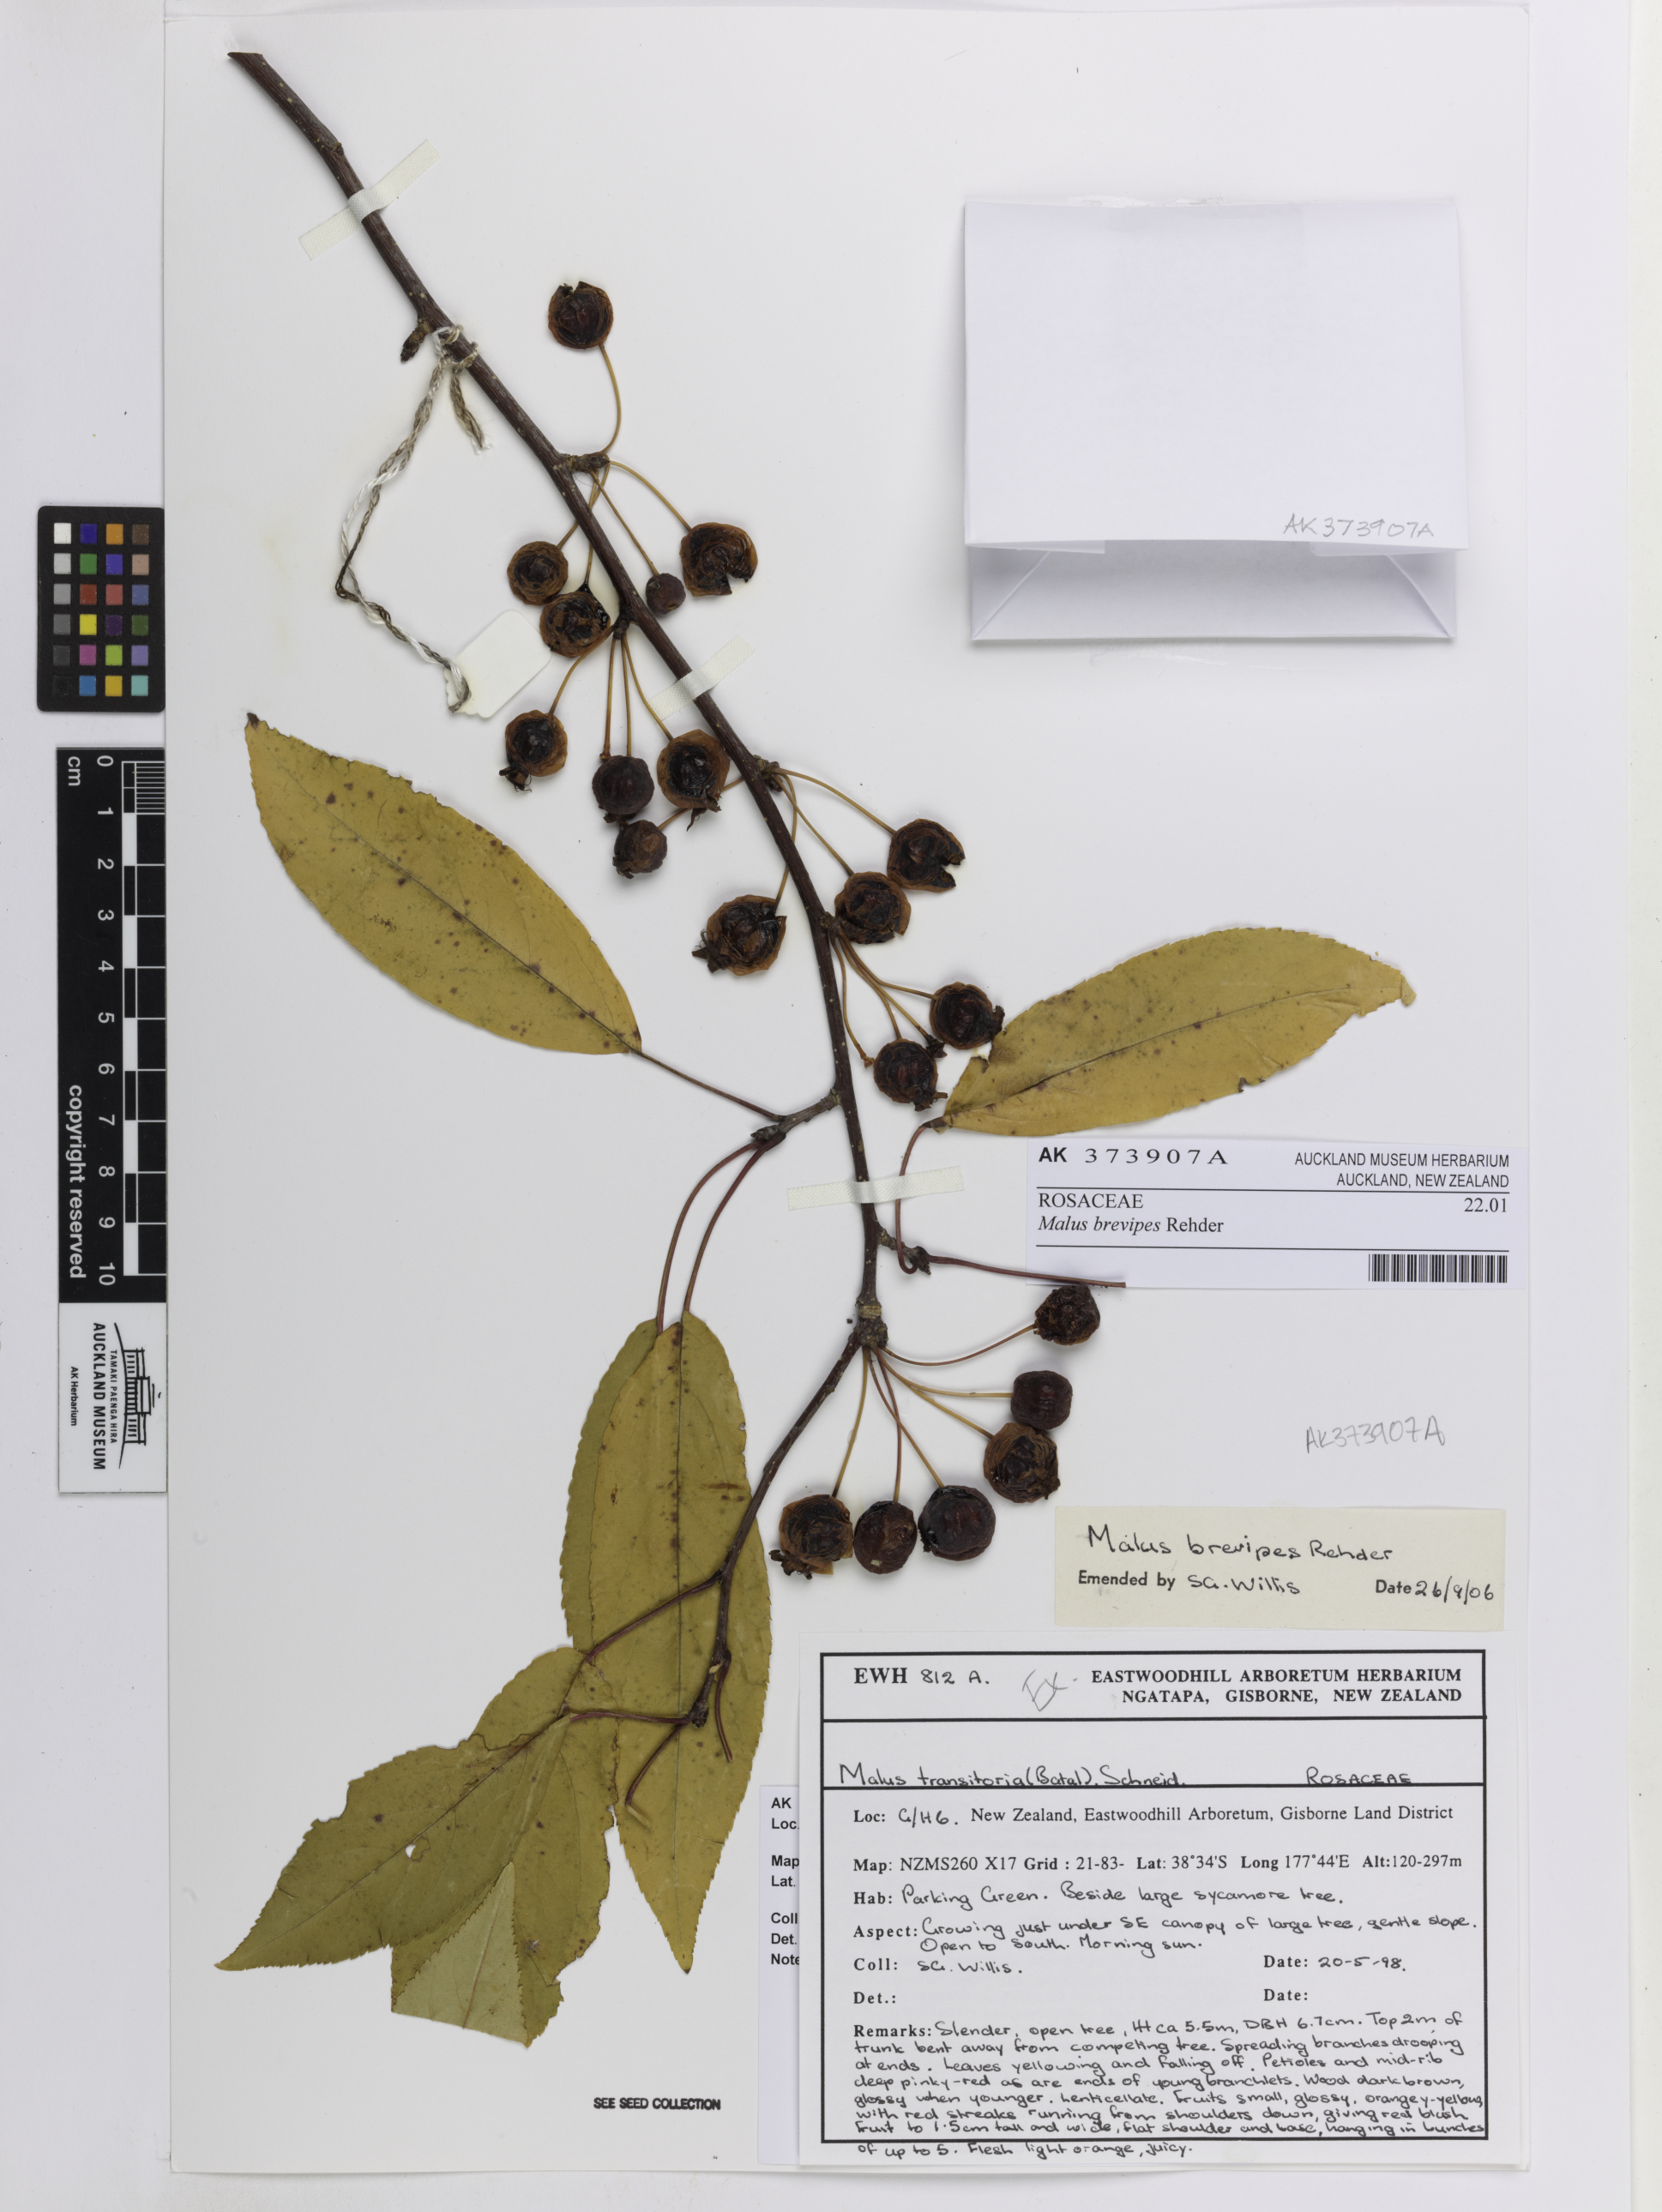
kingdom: Plantae
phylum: Tracheophyta
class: Magnoliopsida
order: Rosales
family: Rosaceae
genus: Malus
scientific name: Malus baccata
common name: Siberian crab
